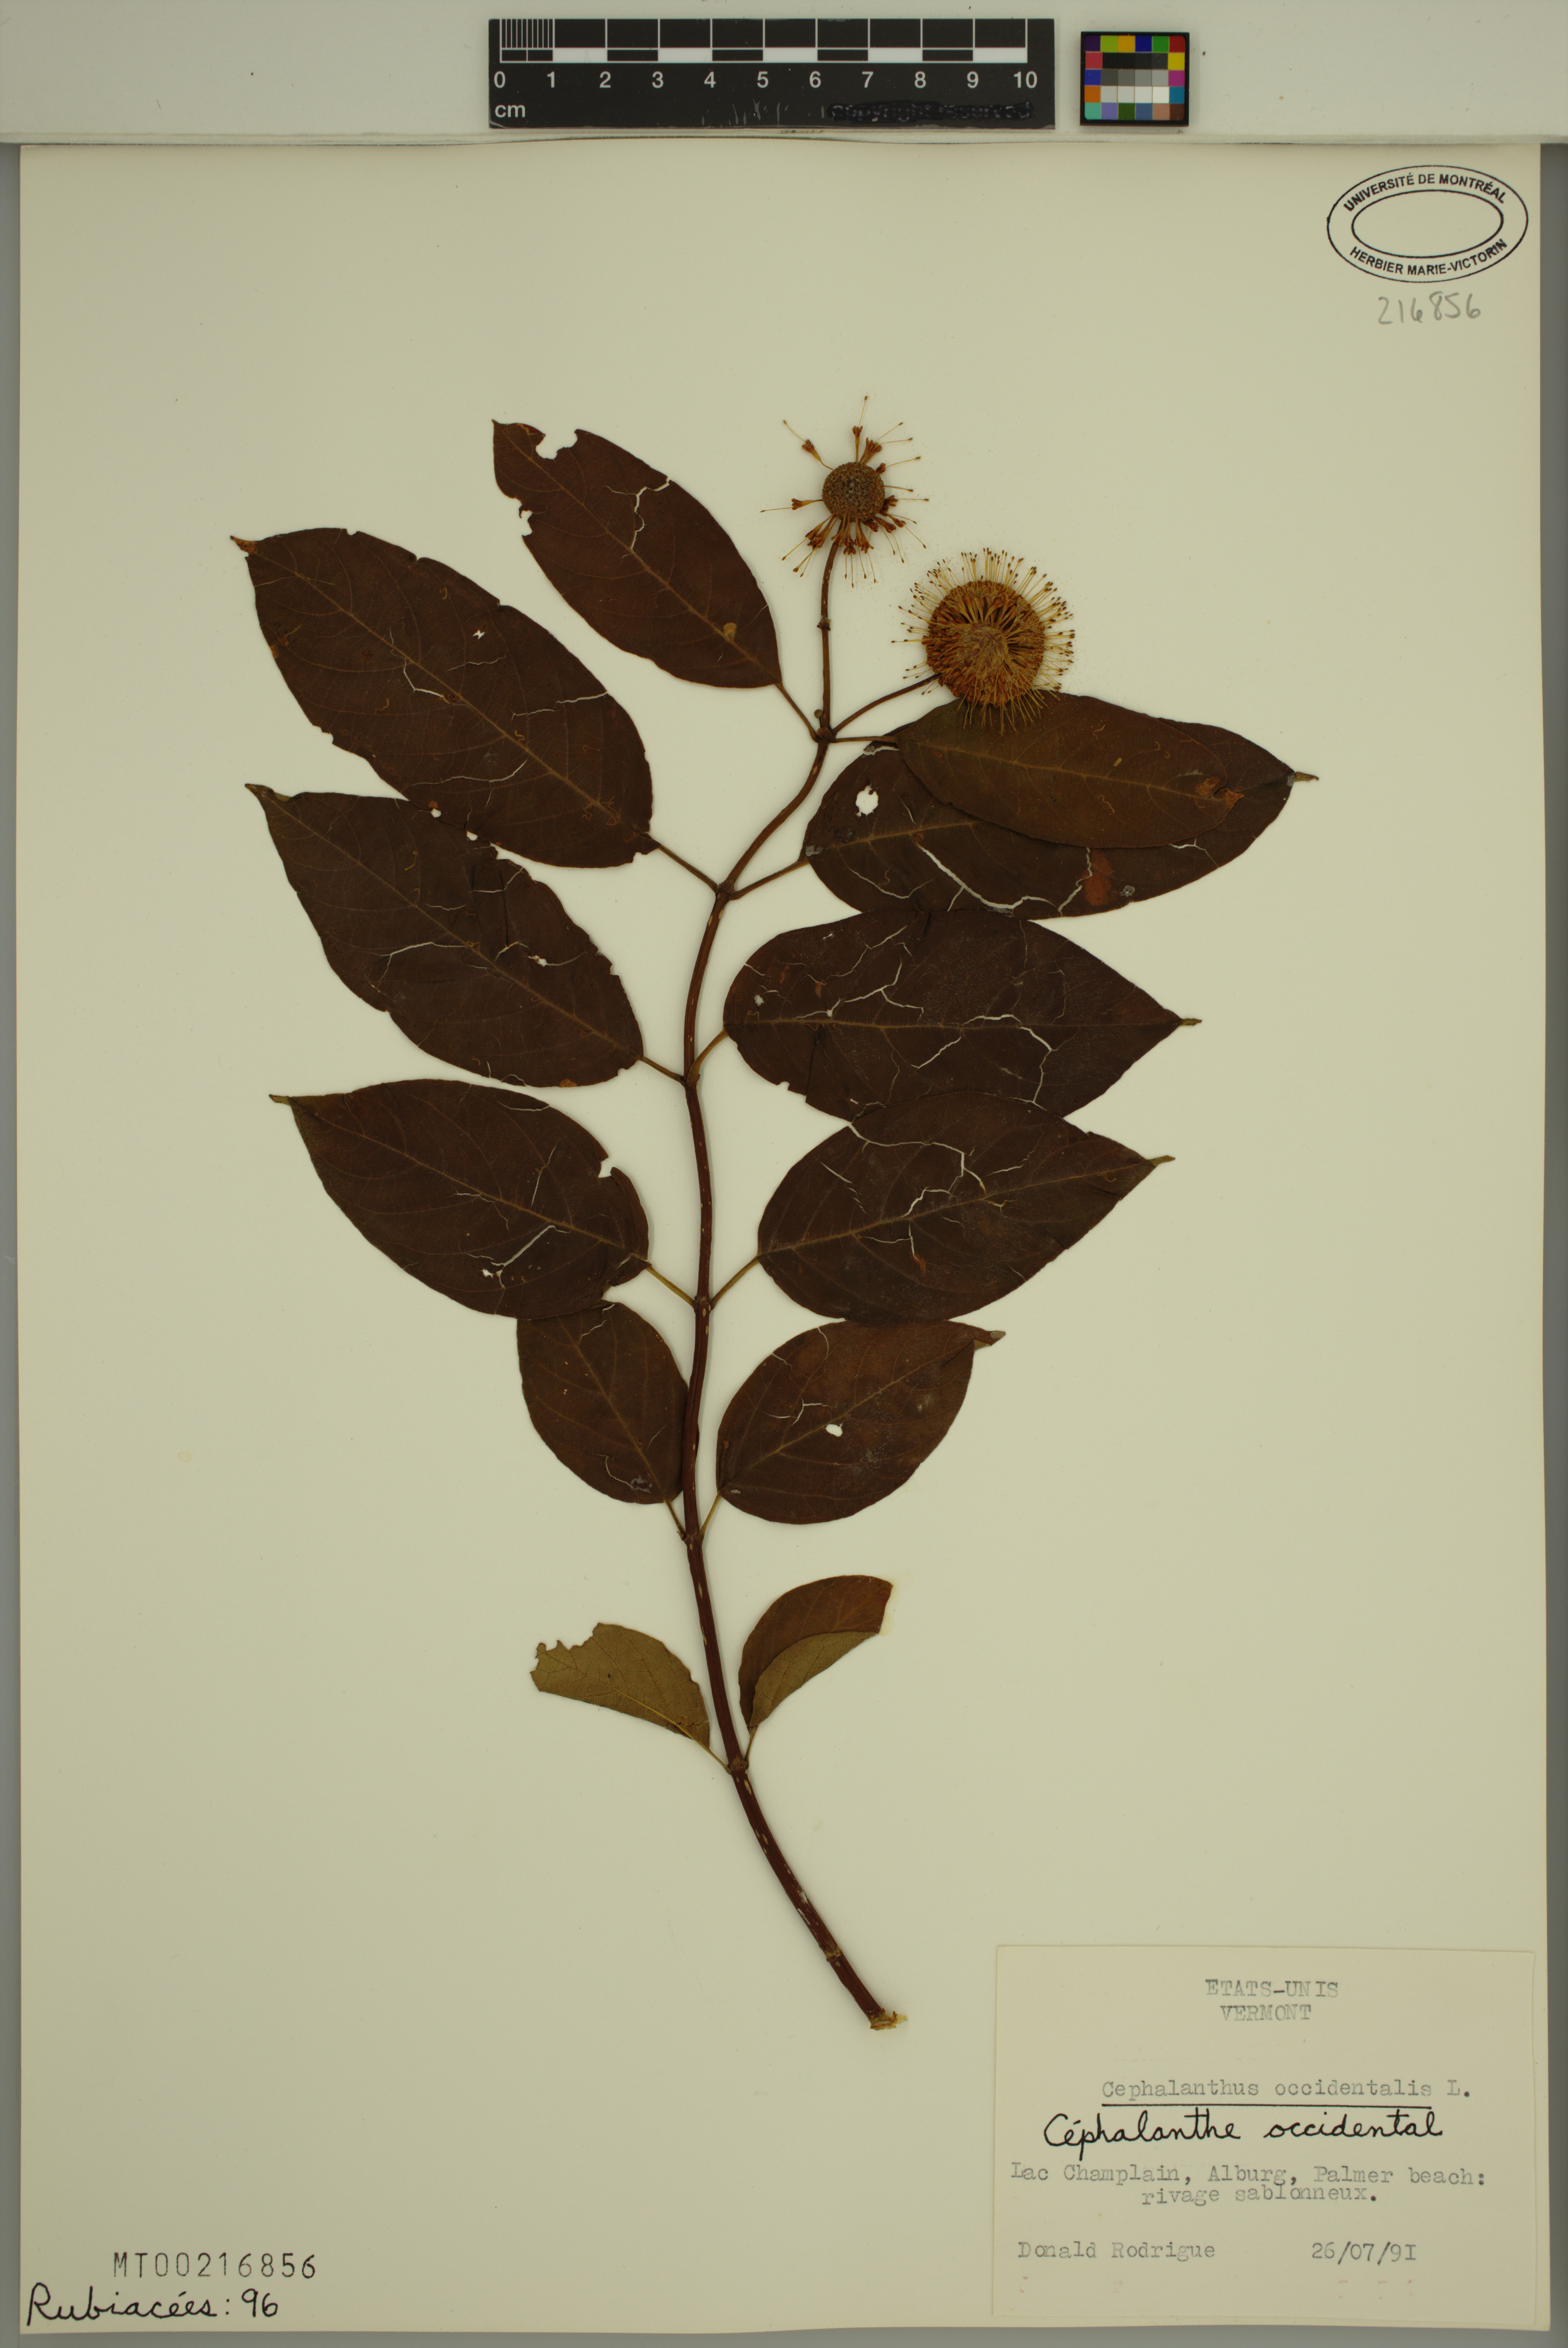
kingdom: Plantae
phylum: Tracheophyta
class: Magnoliopsida
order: Gentianales
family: Rubiaceae
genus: Cephalanthus
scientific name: Cephalanthus occidentalis
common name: Button-willow
